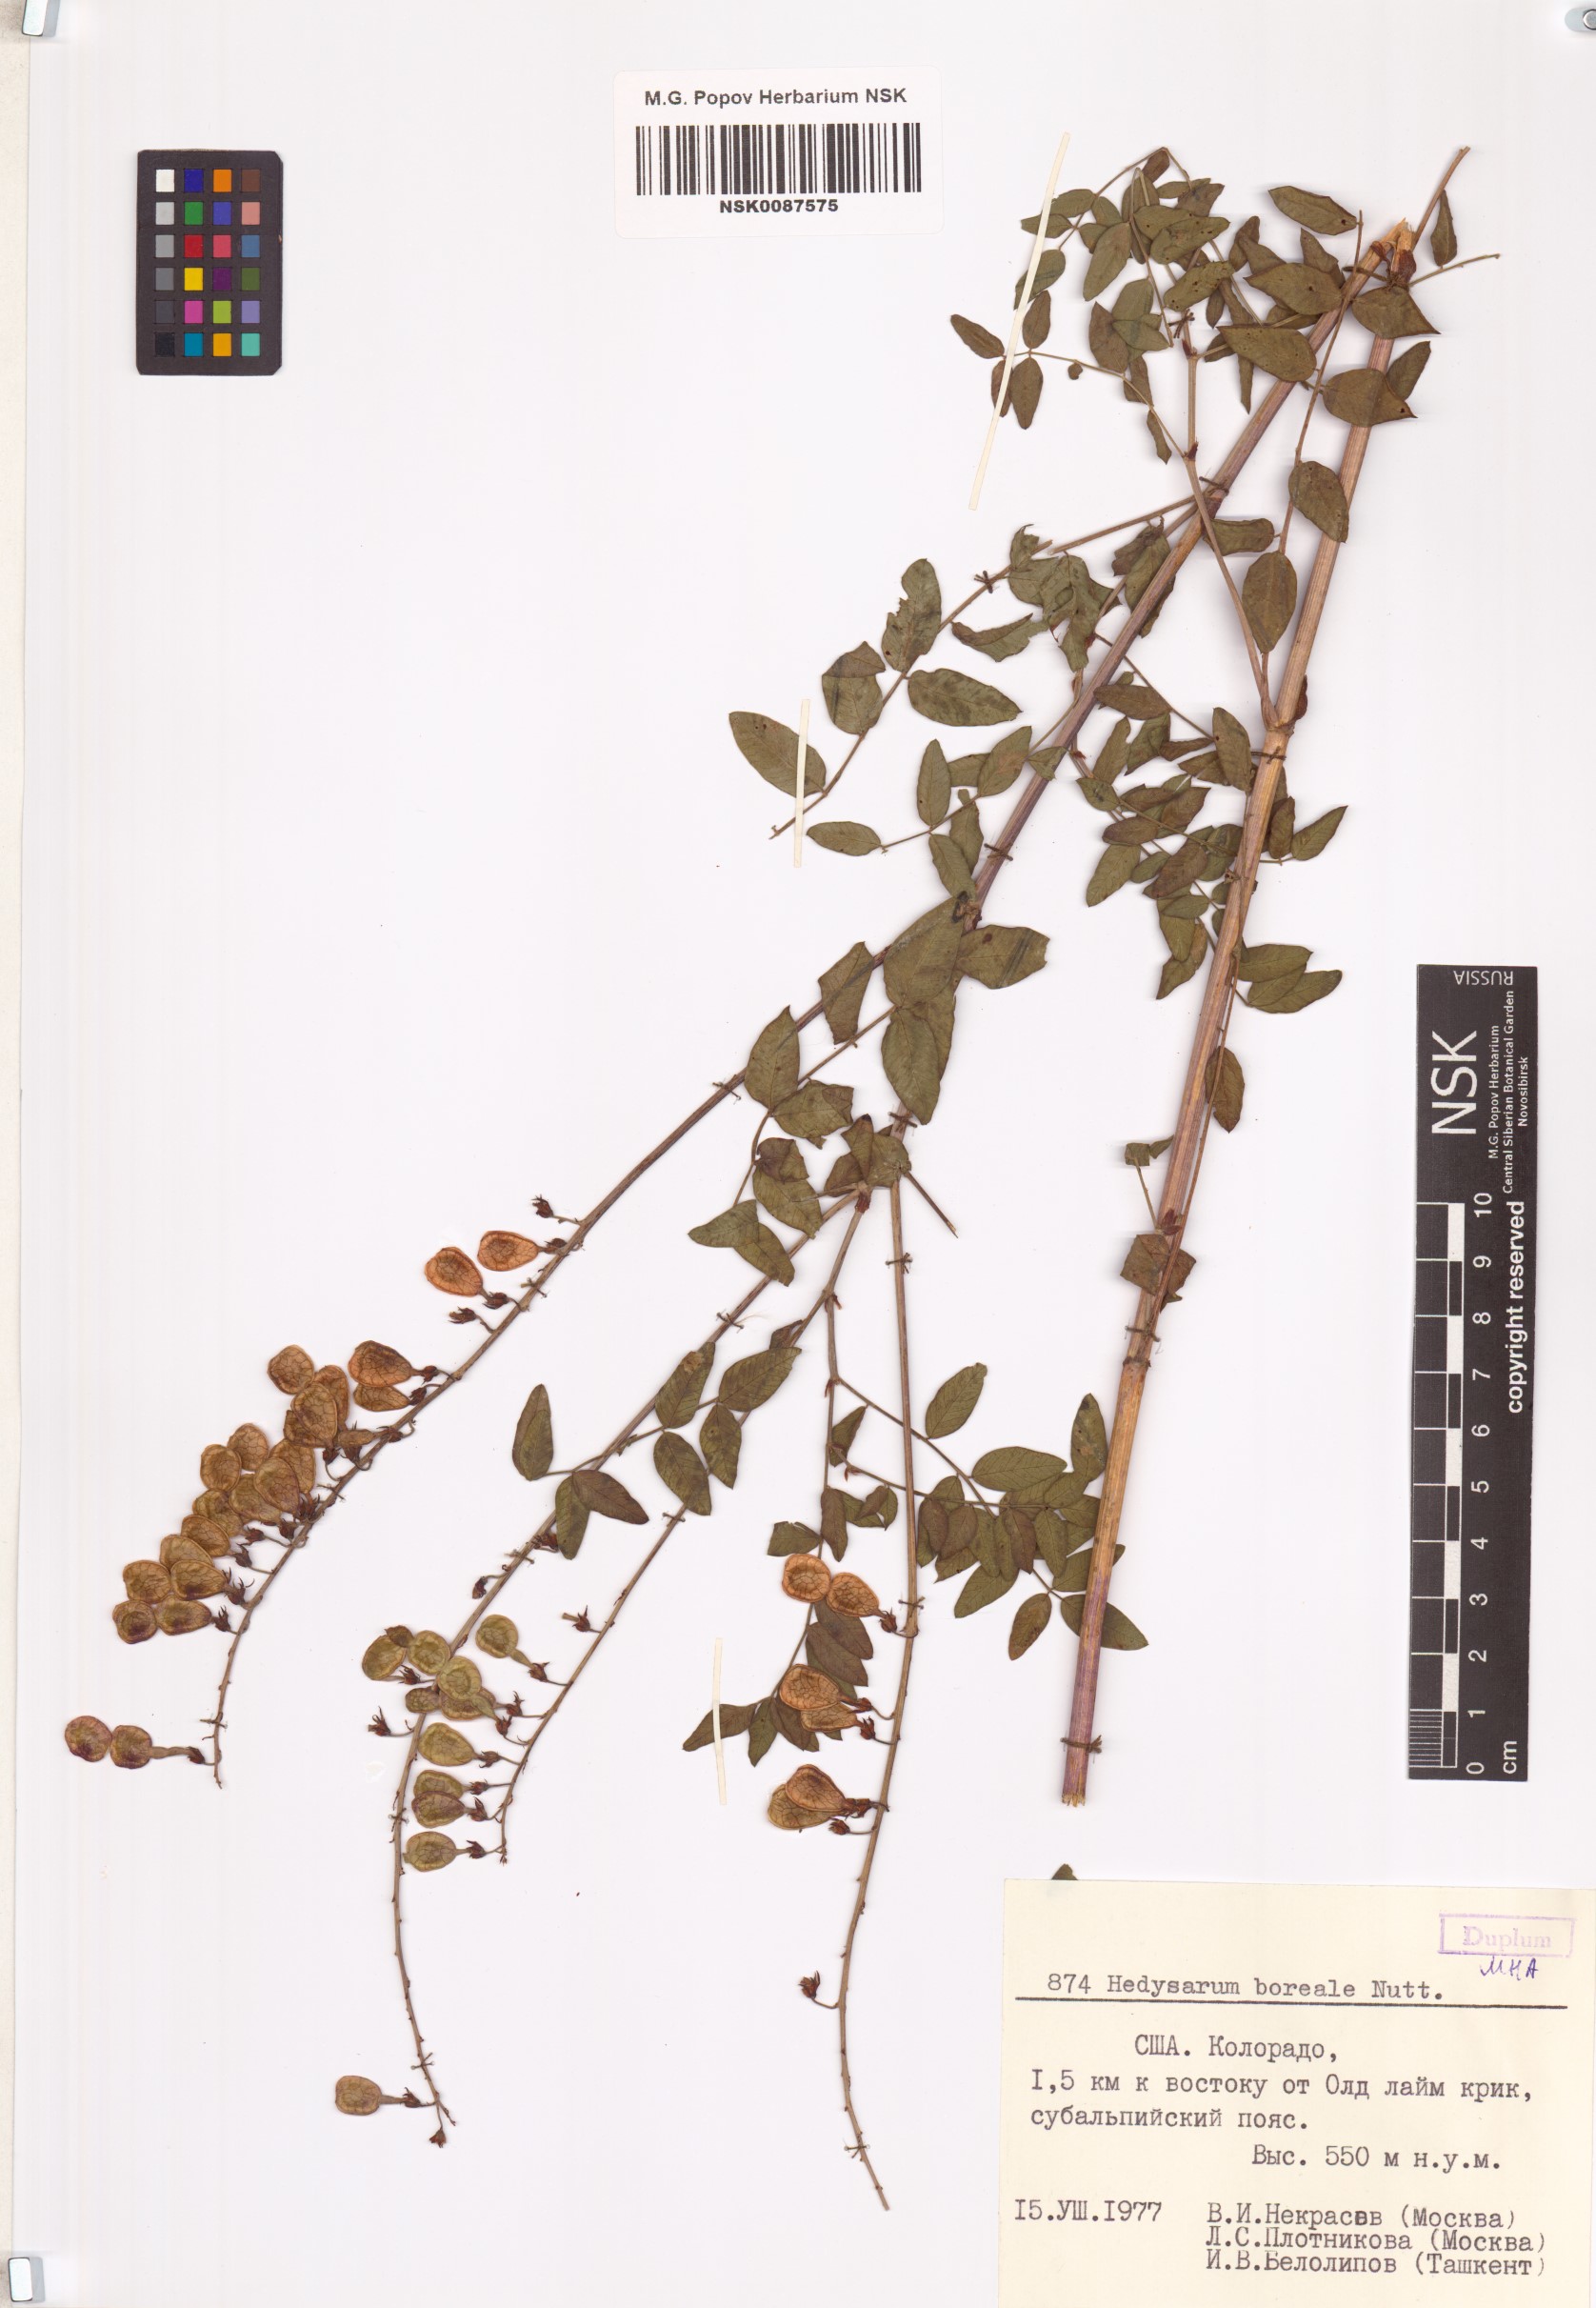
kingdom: Plantae
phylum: Tracheophyta
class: Magnoliopsida
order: Fabales
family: Fabaceae
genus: Hedysarum
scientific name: Hedysarum boreale
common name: Northern sweet-vetch
